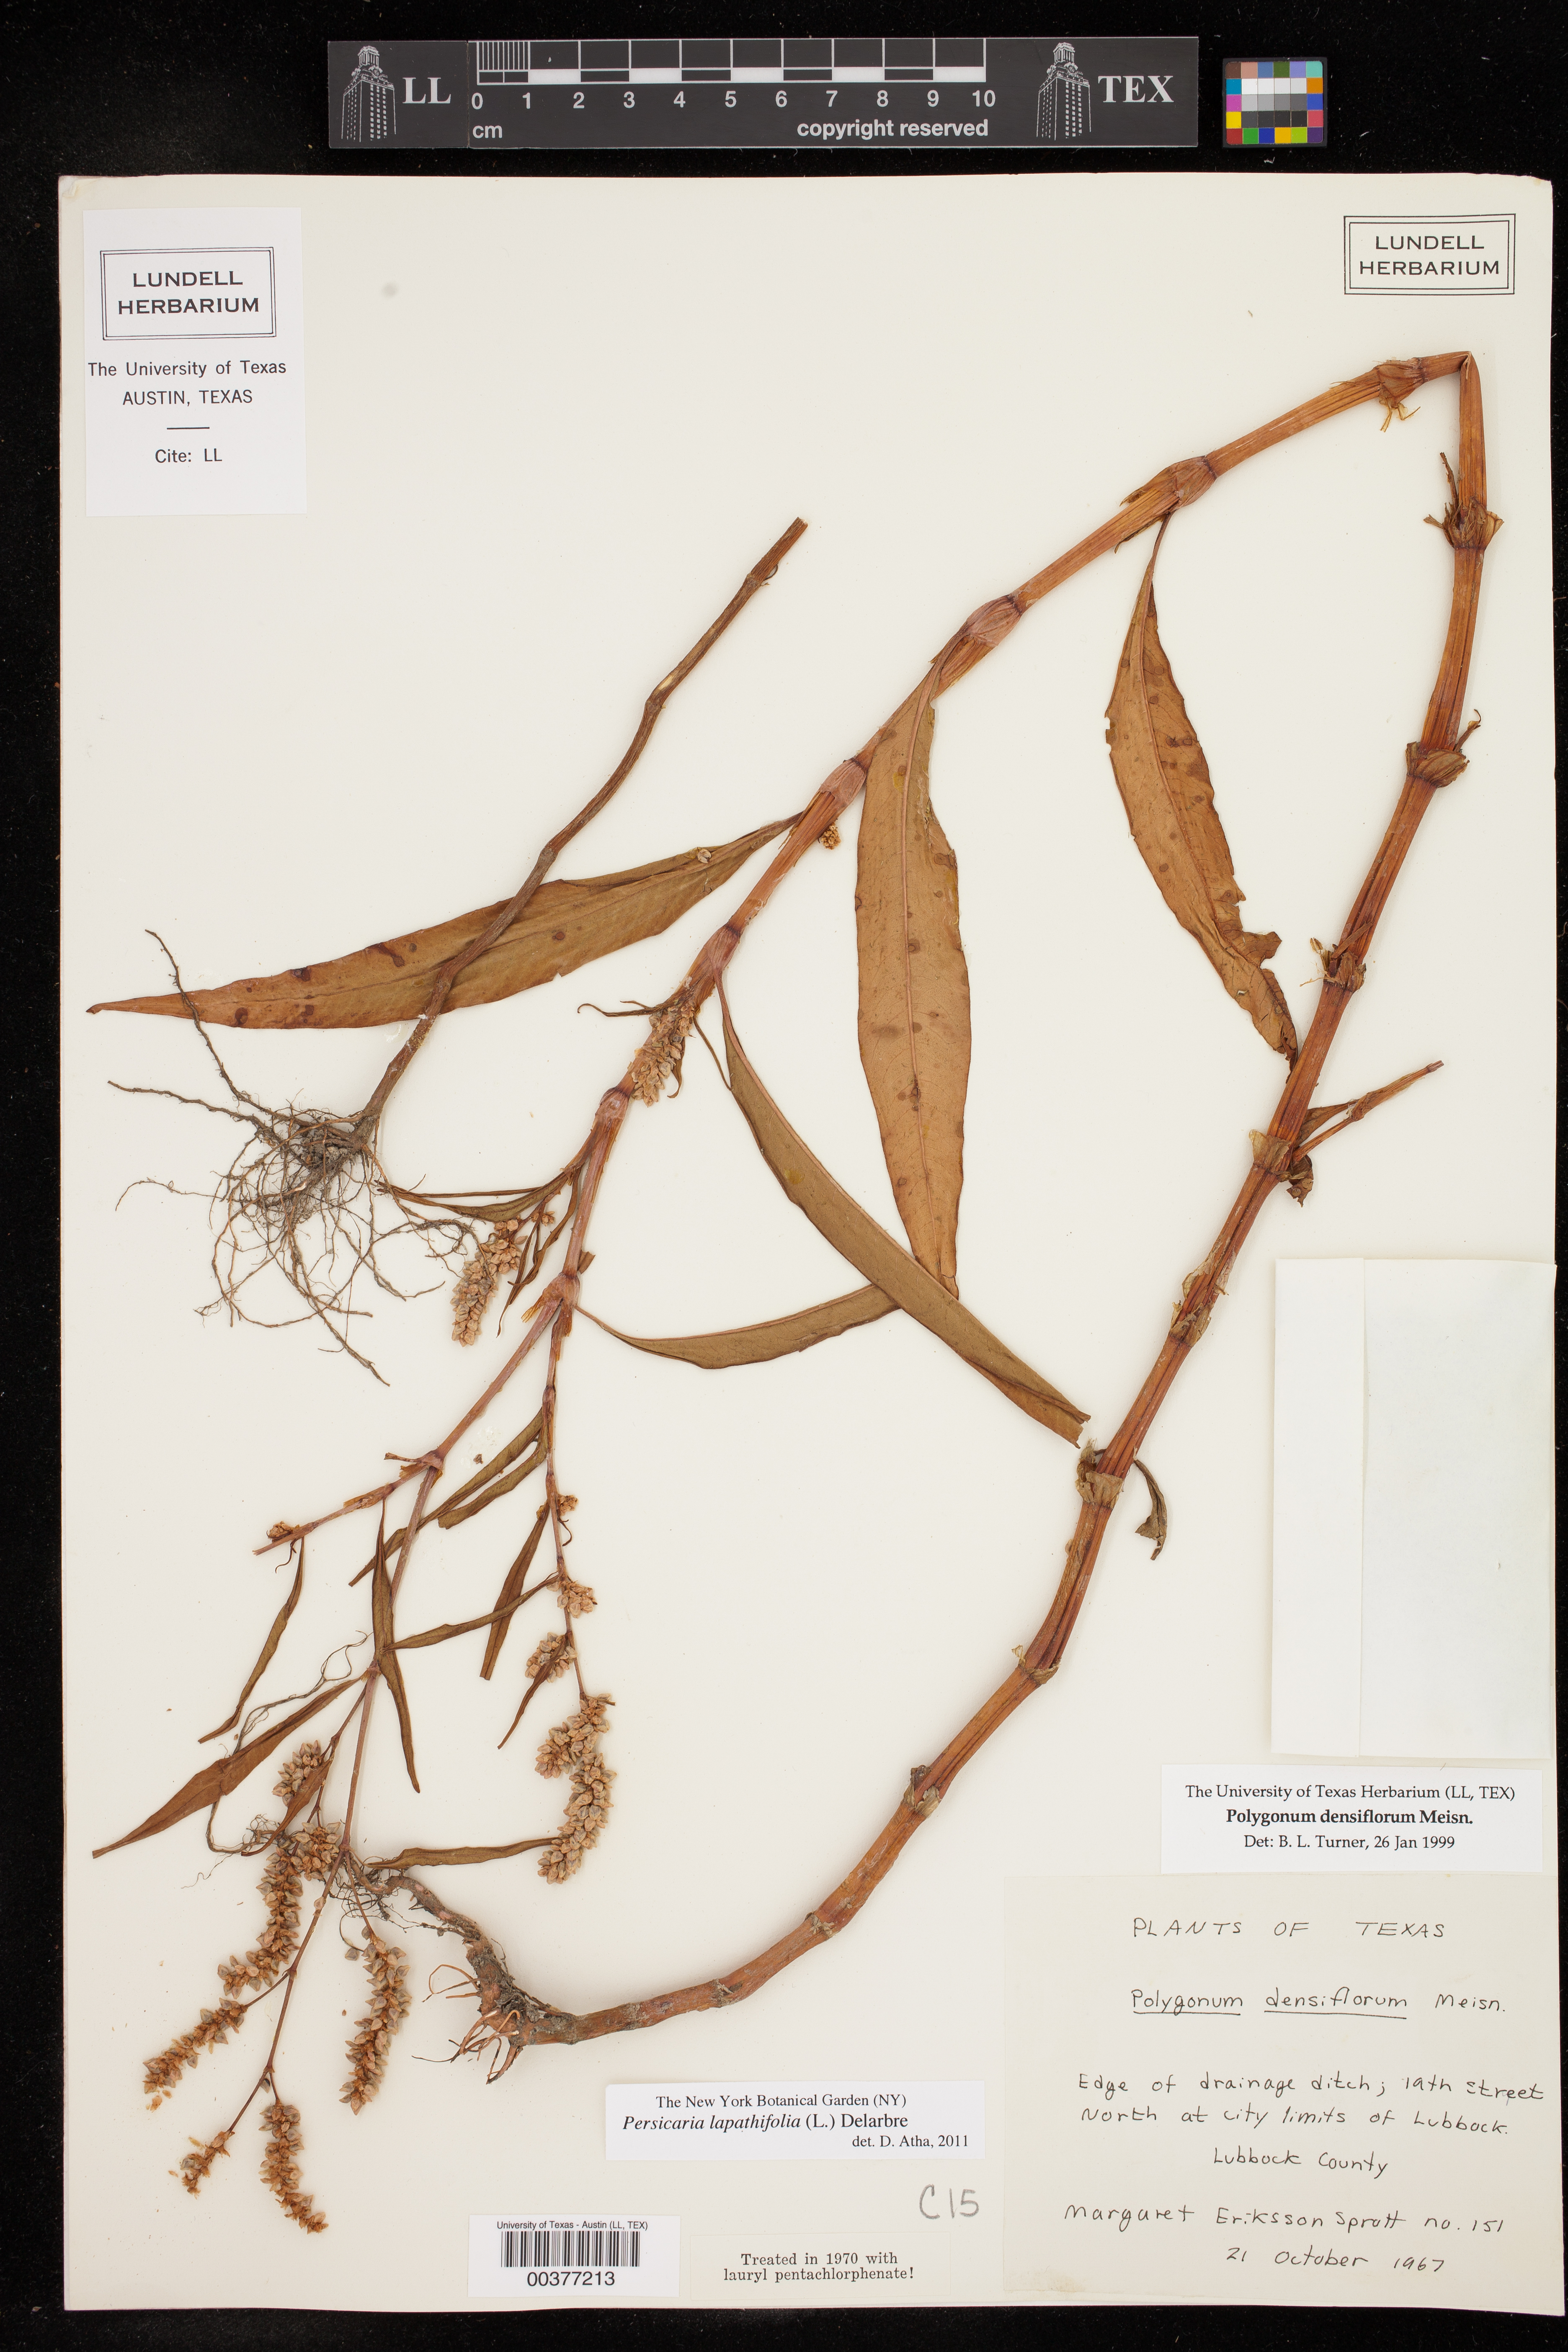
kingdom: Plantae
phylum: Tracheophyta
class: Magnoliopsida
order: Caryophyllales
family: Polygonaceae
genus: Persicaria
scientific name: Persicaria lapathifolia
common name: Curlytop knotweed
